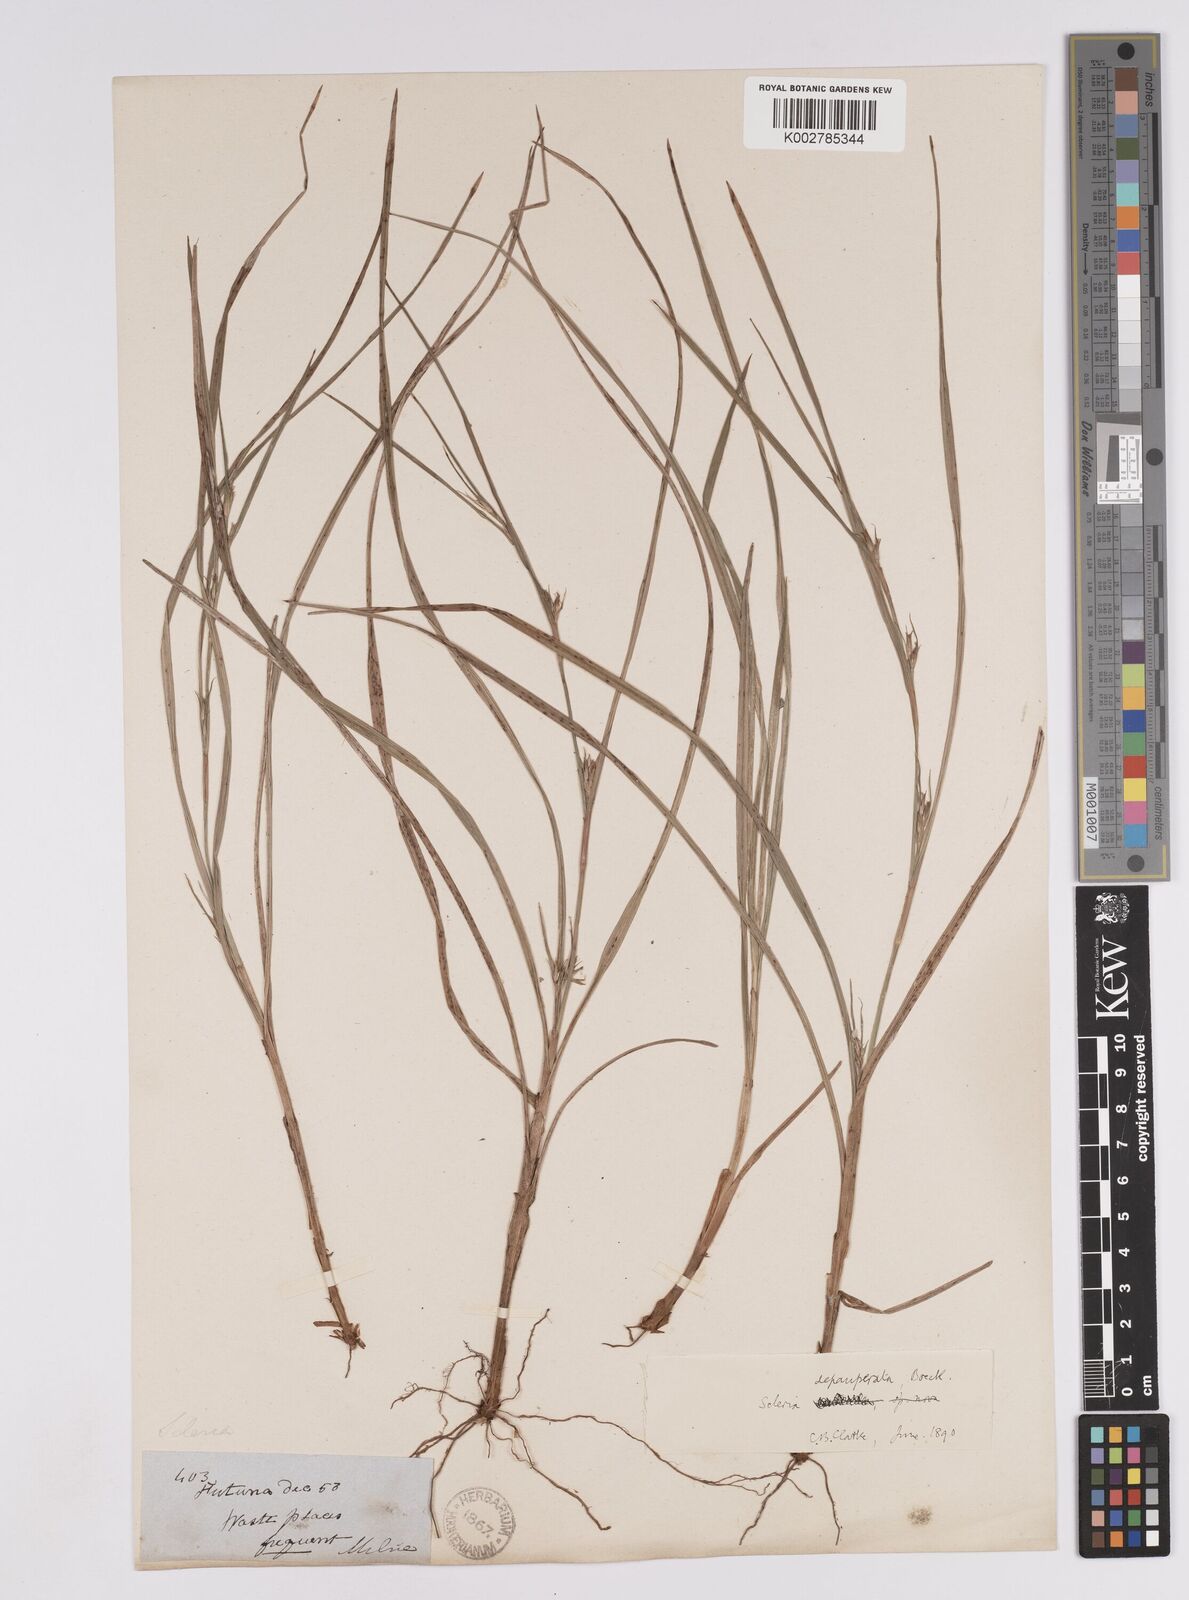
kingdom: Plantae
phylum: Tracheophyta
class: Liliopsida
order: Poales
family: Cyperaceae
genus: Scleria
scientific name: Scleria depauperata
